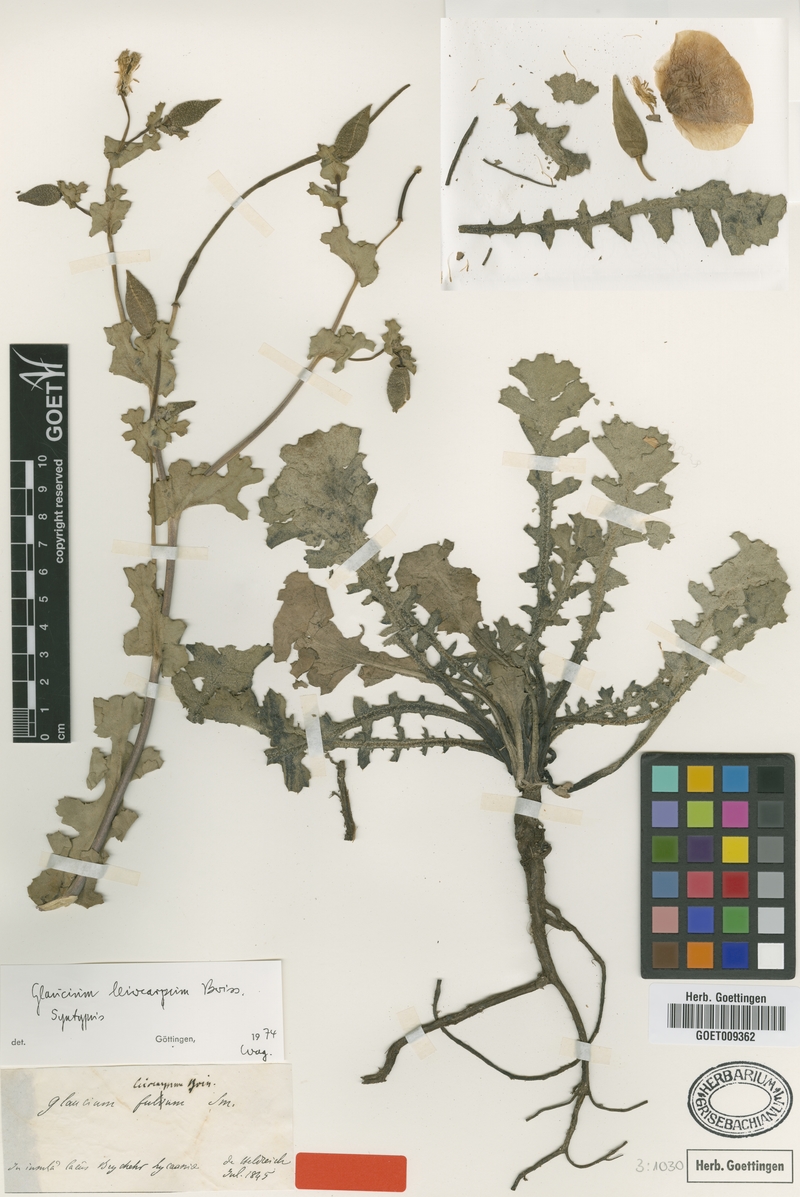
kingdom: Plantae
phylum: Tracheophyta
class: Magnoliopsida
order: Ranunculales
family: Papaveraceae
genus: Glaucium
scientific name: Glaucium oxylobum
